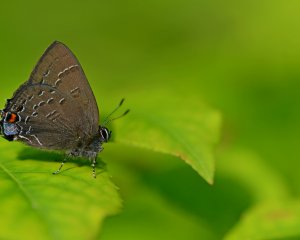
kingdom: Animalia
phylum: Arthropoda
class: Insecta
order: Lepidoptera
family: Lycaenidae
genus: Satyrium
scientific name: Satyrium calanus
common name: Banded Hairstreak
